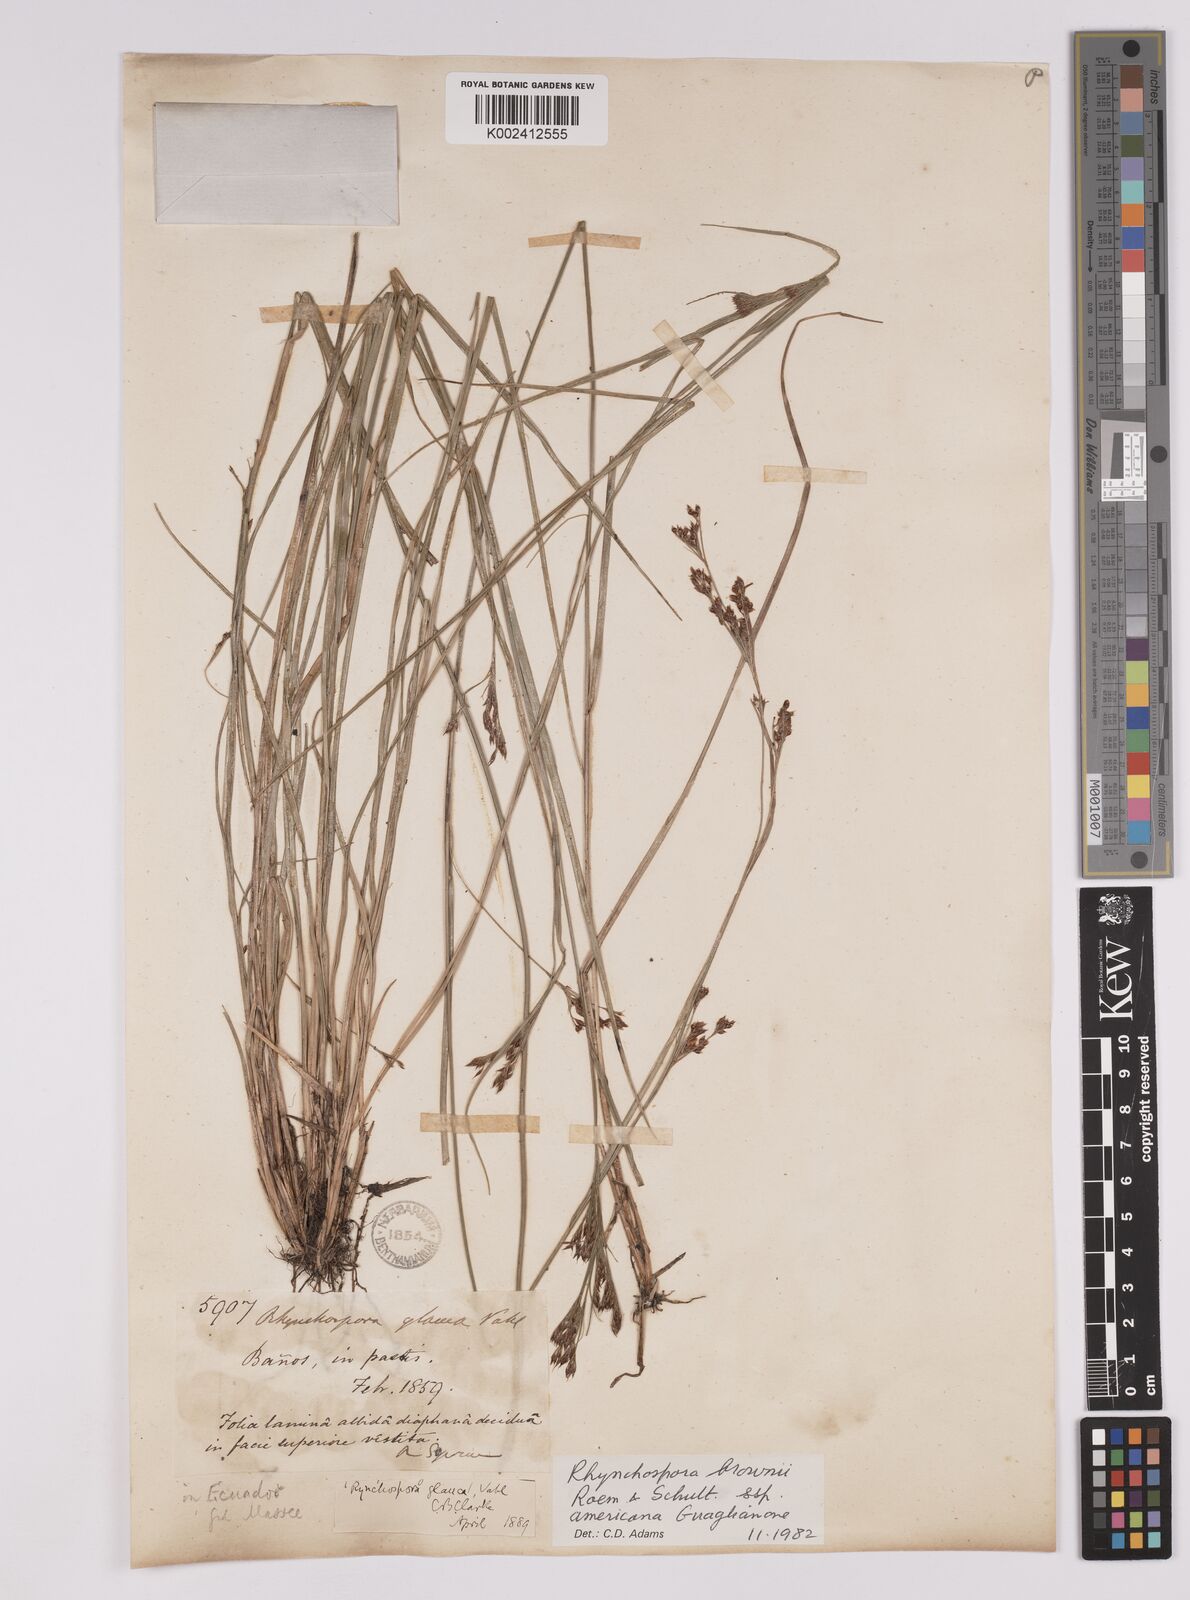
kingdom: Plantae
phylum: Tracheophyta
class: Liliopsida
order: Poales
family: Cyperaceae
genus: Rhynchospora
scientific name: Rhynchospora rugosa
